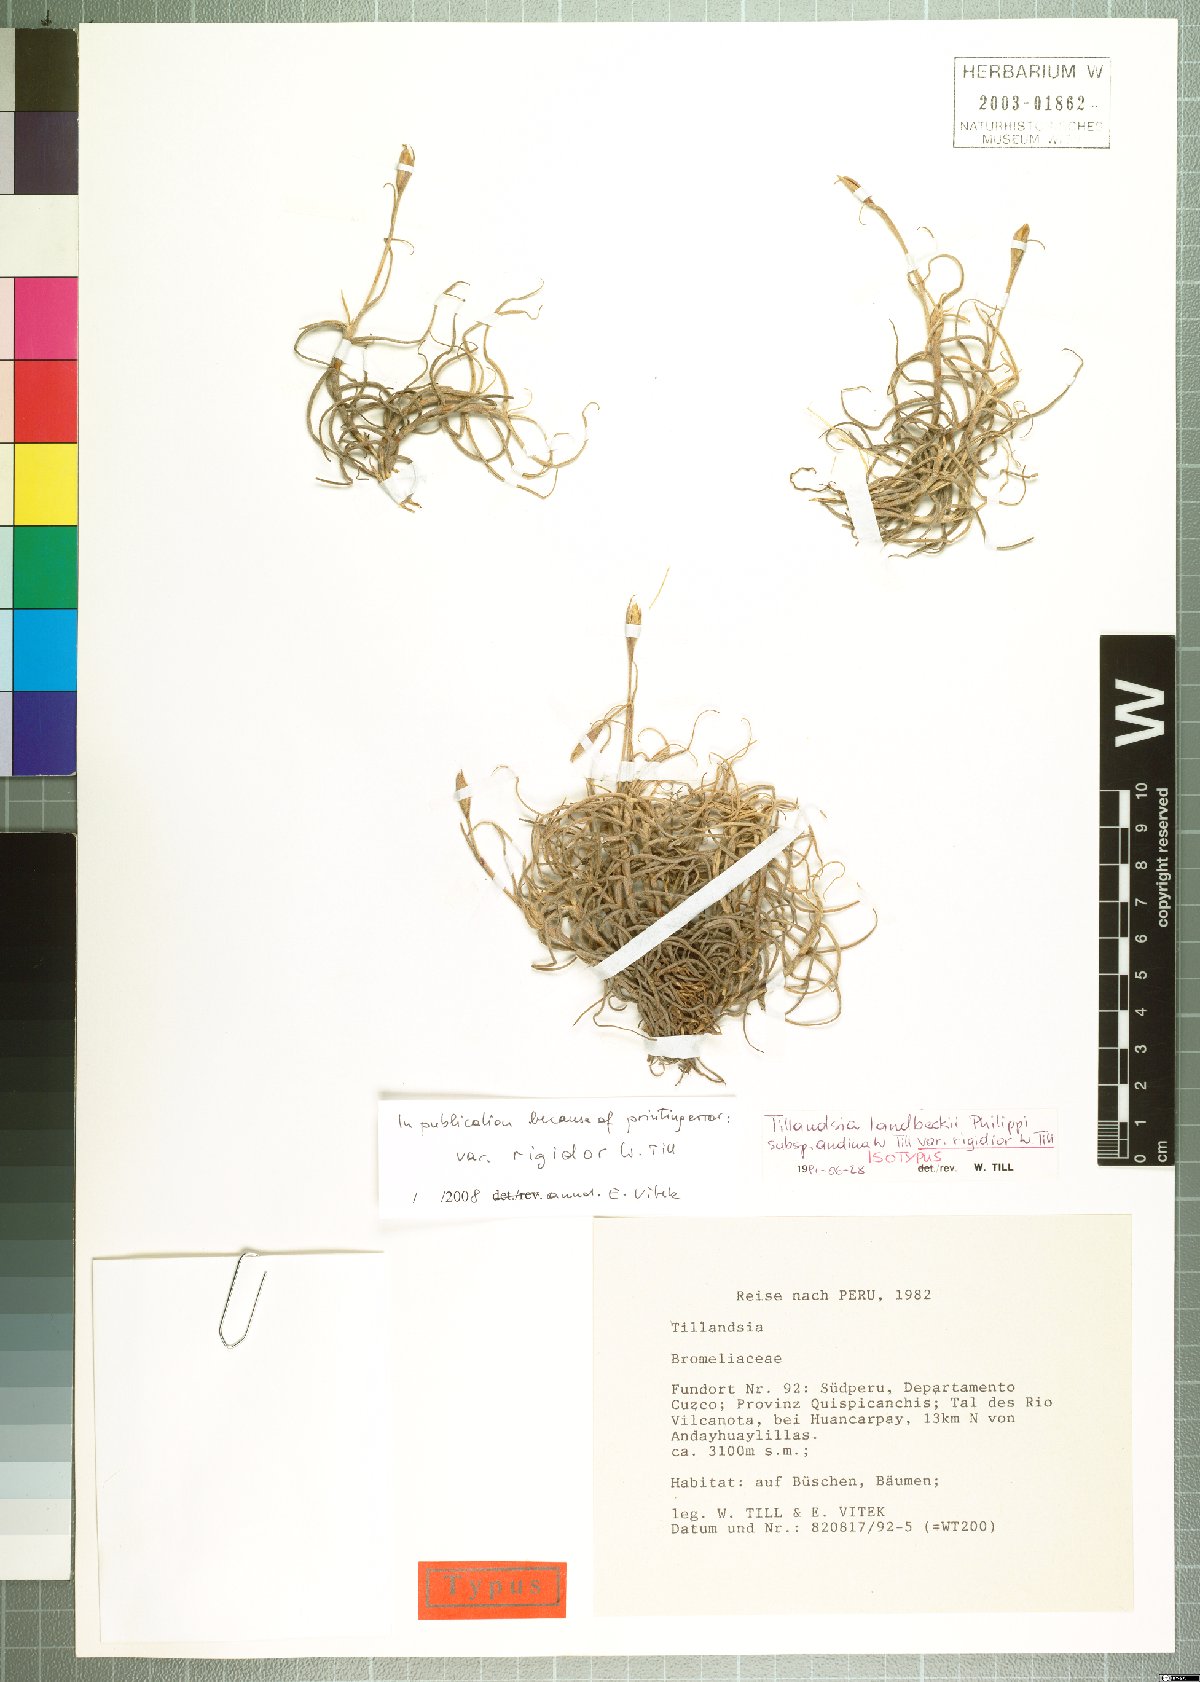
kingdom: Plantae
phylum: Tracheophyta
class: Liliopsida
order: Poales
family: Bromeliaceae
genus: Tillandsia
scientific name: Tillandsia landbeckii
